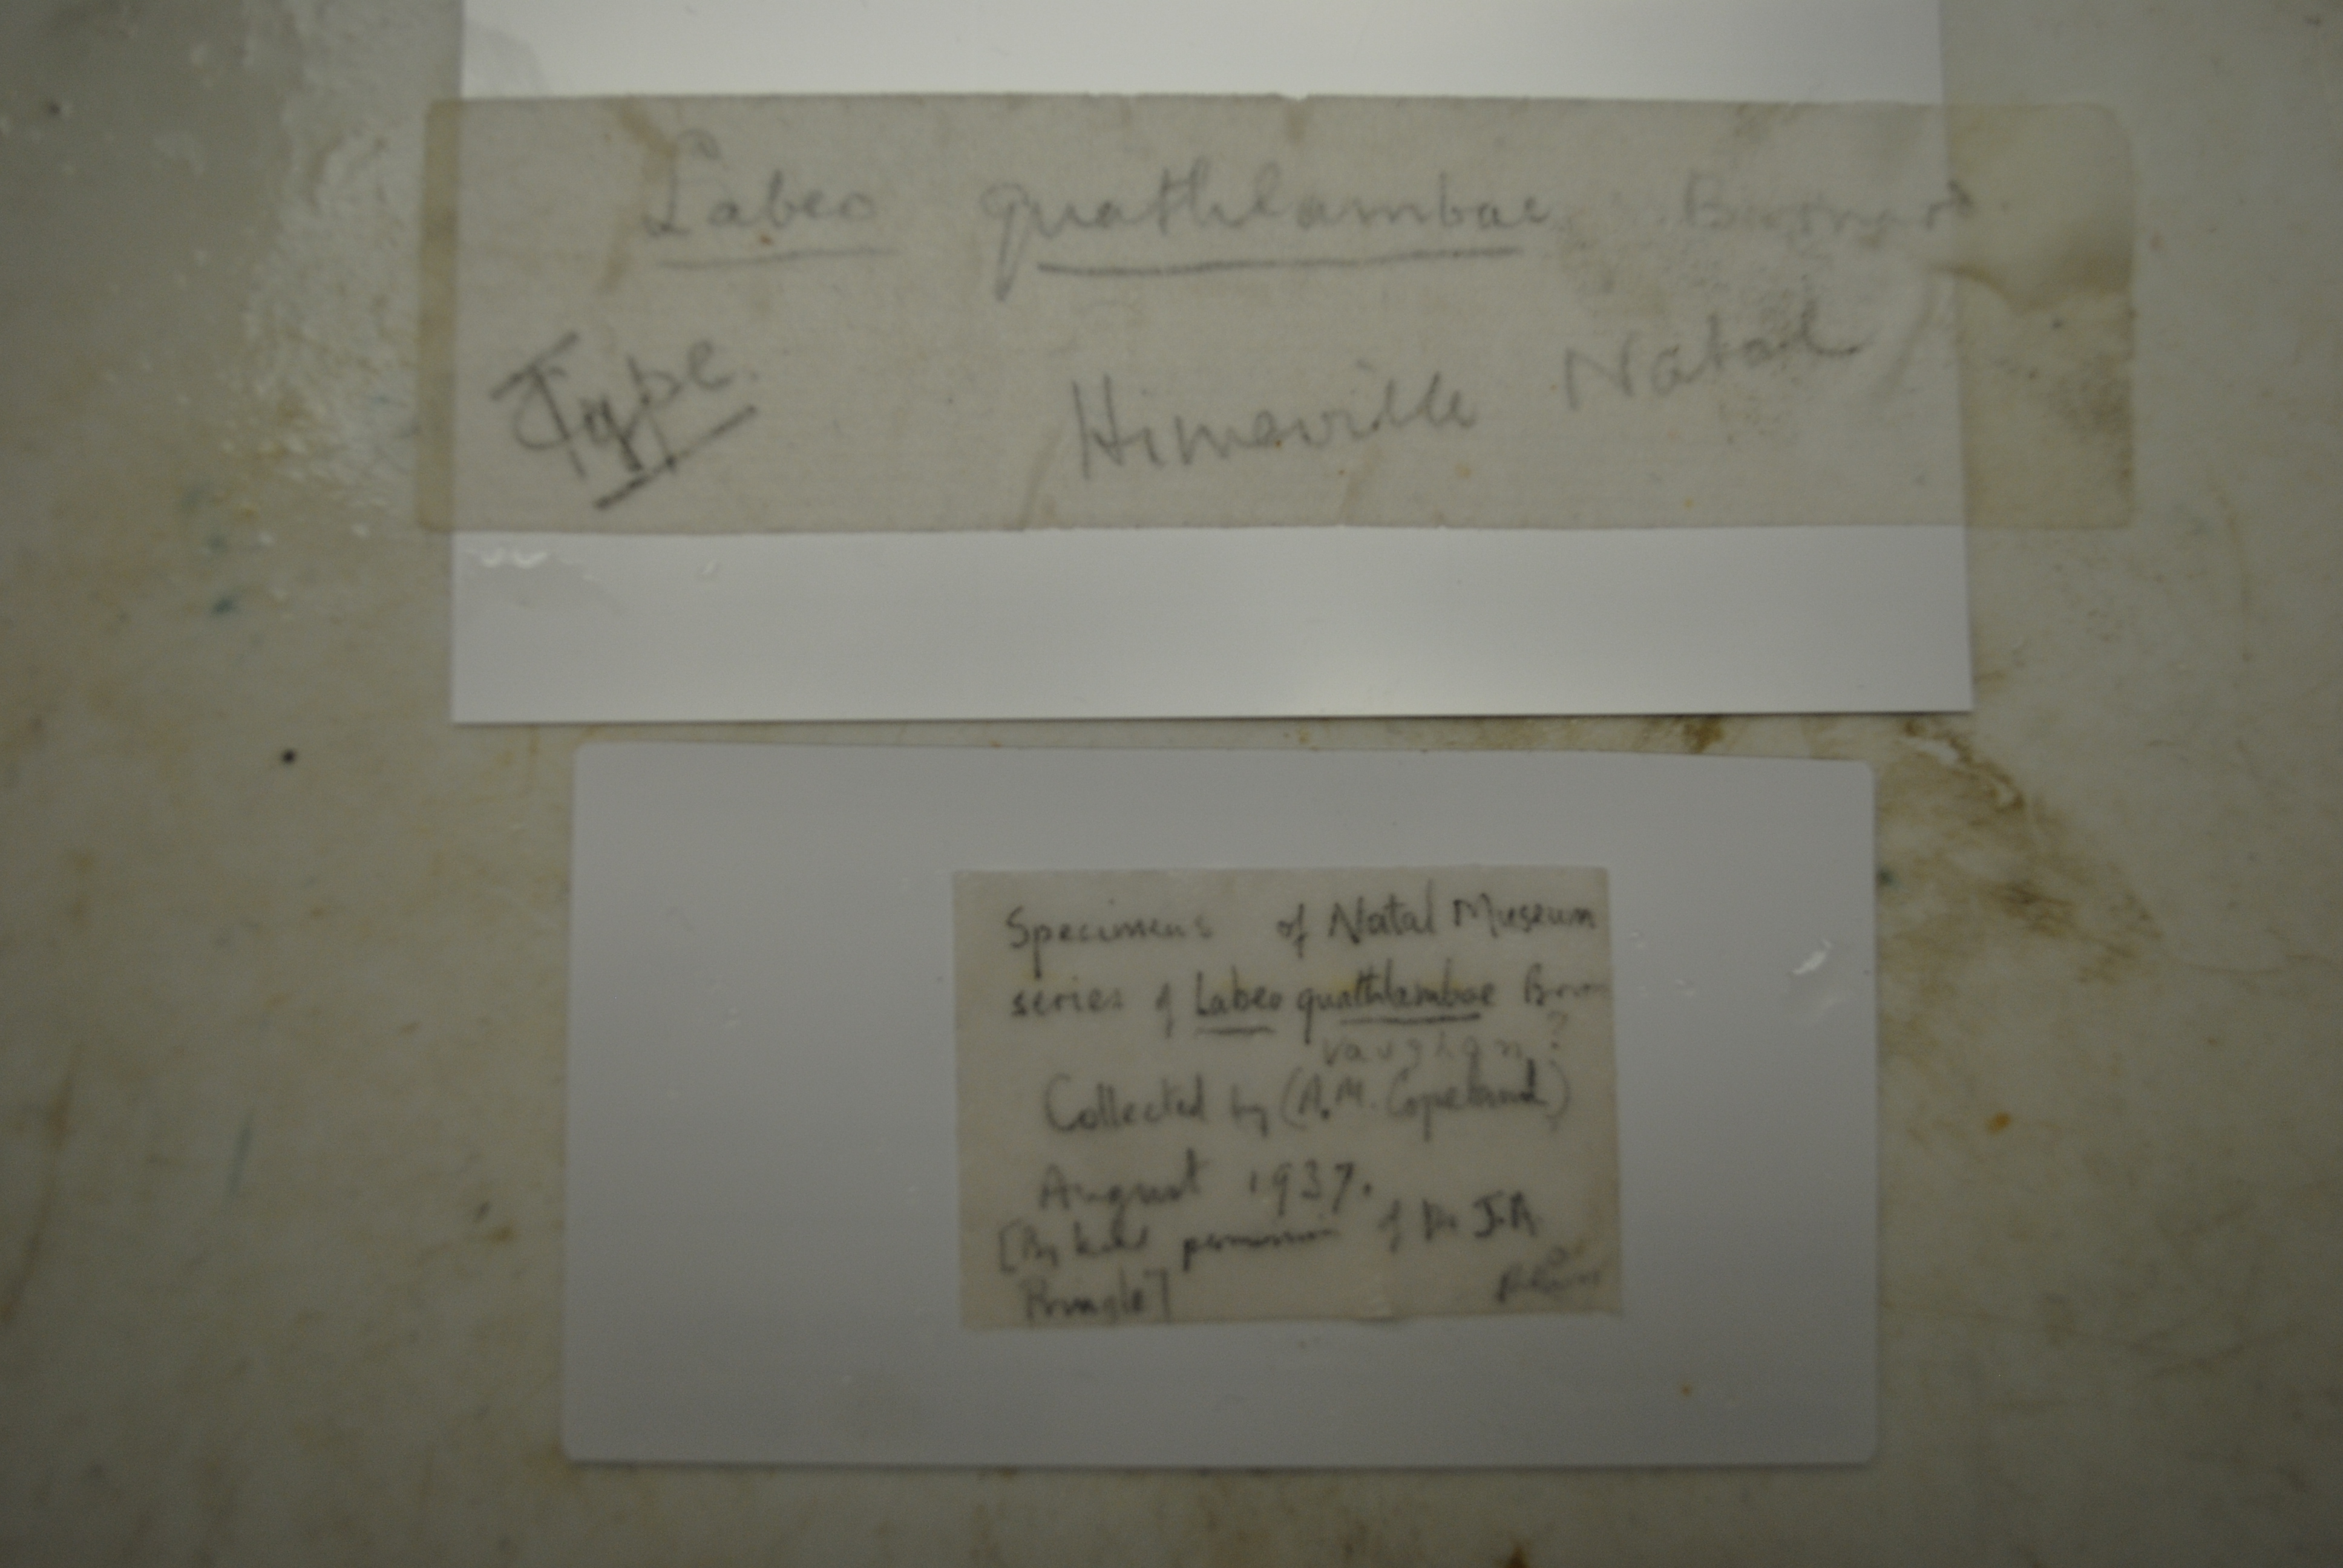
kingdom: Animalia
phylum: Chordata
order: Cypriniformes
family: Cyprinidae
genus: Pseudobarbus
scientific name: Pseudobarbus quathlambae
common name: Maluti minnow
